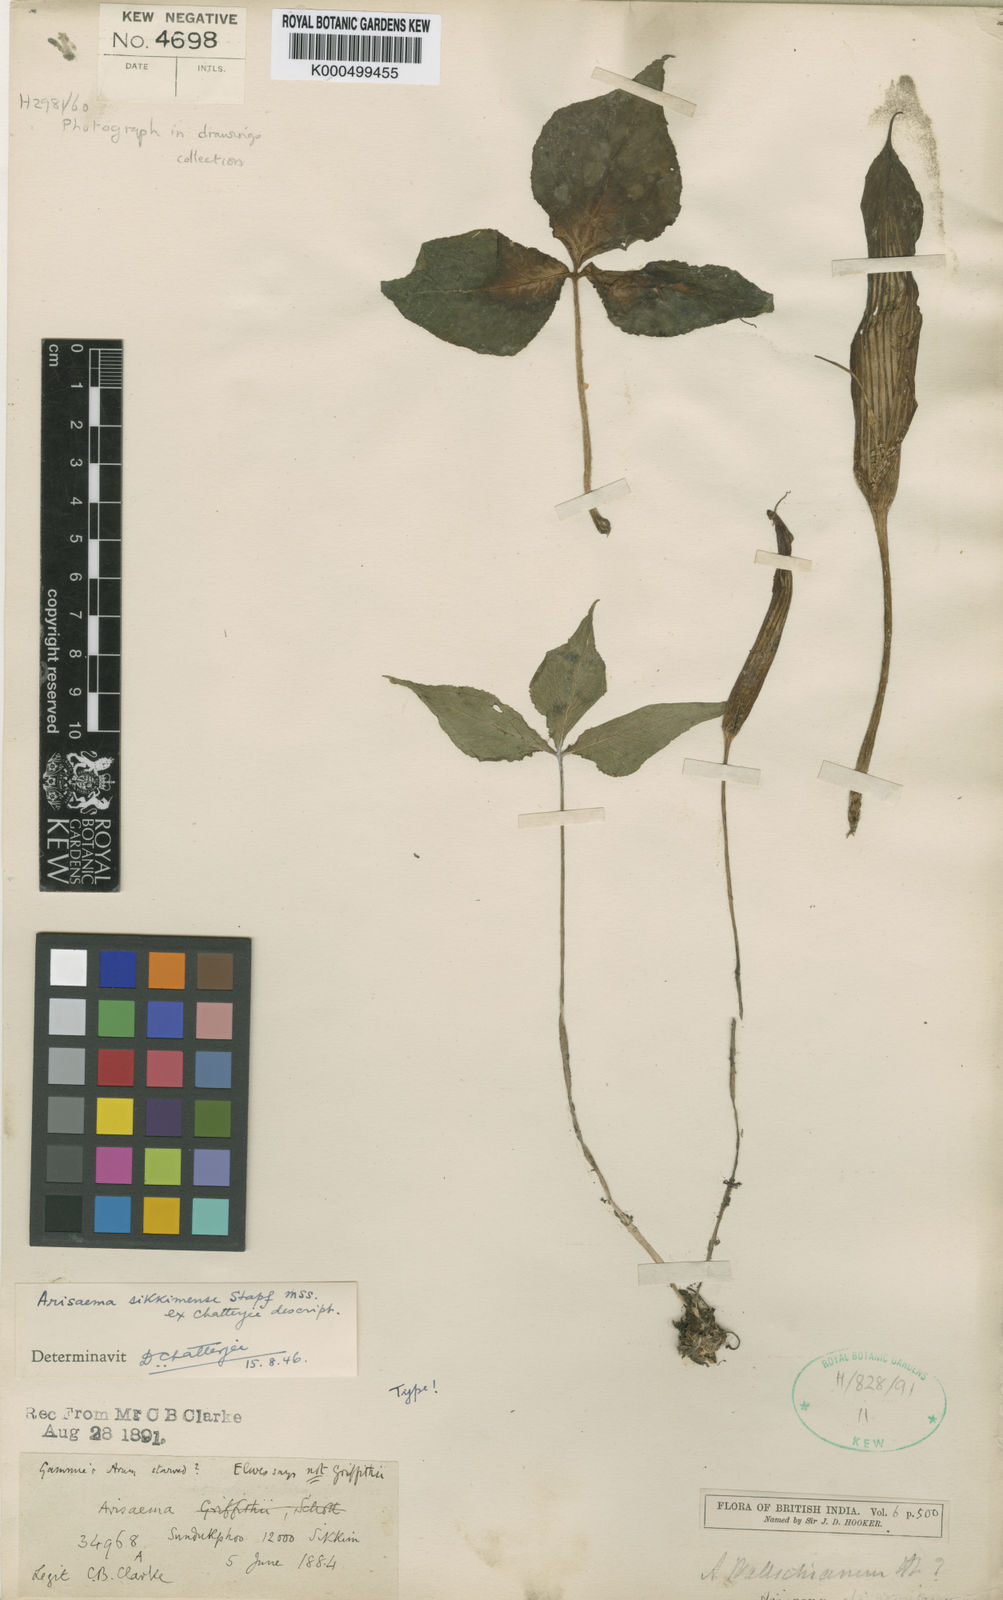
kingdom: Plantae
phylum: Tracheophyta
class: Liliopsida
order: Alismatales
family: Araceae
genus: Arisaema
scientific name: Arisaema propinquum
